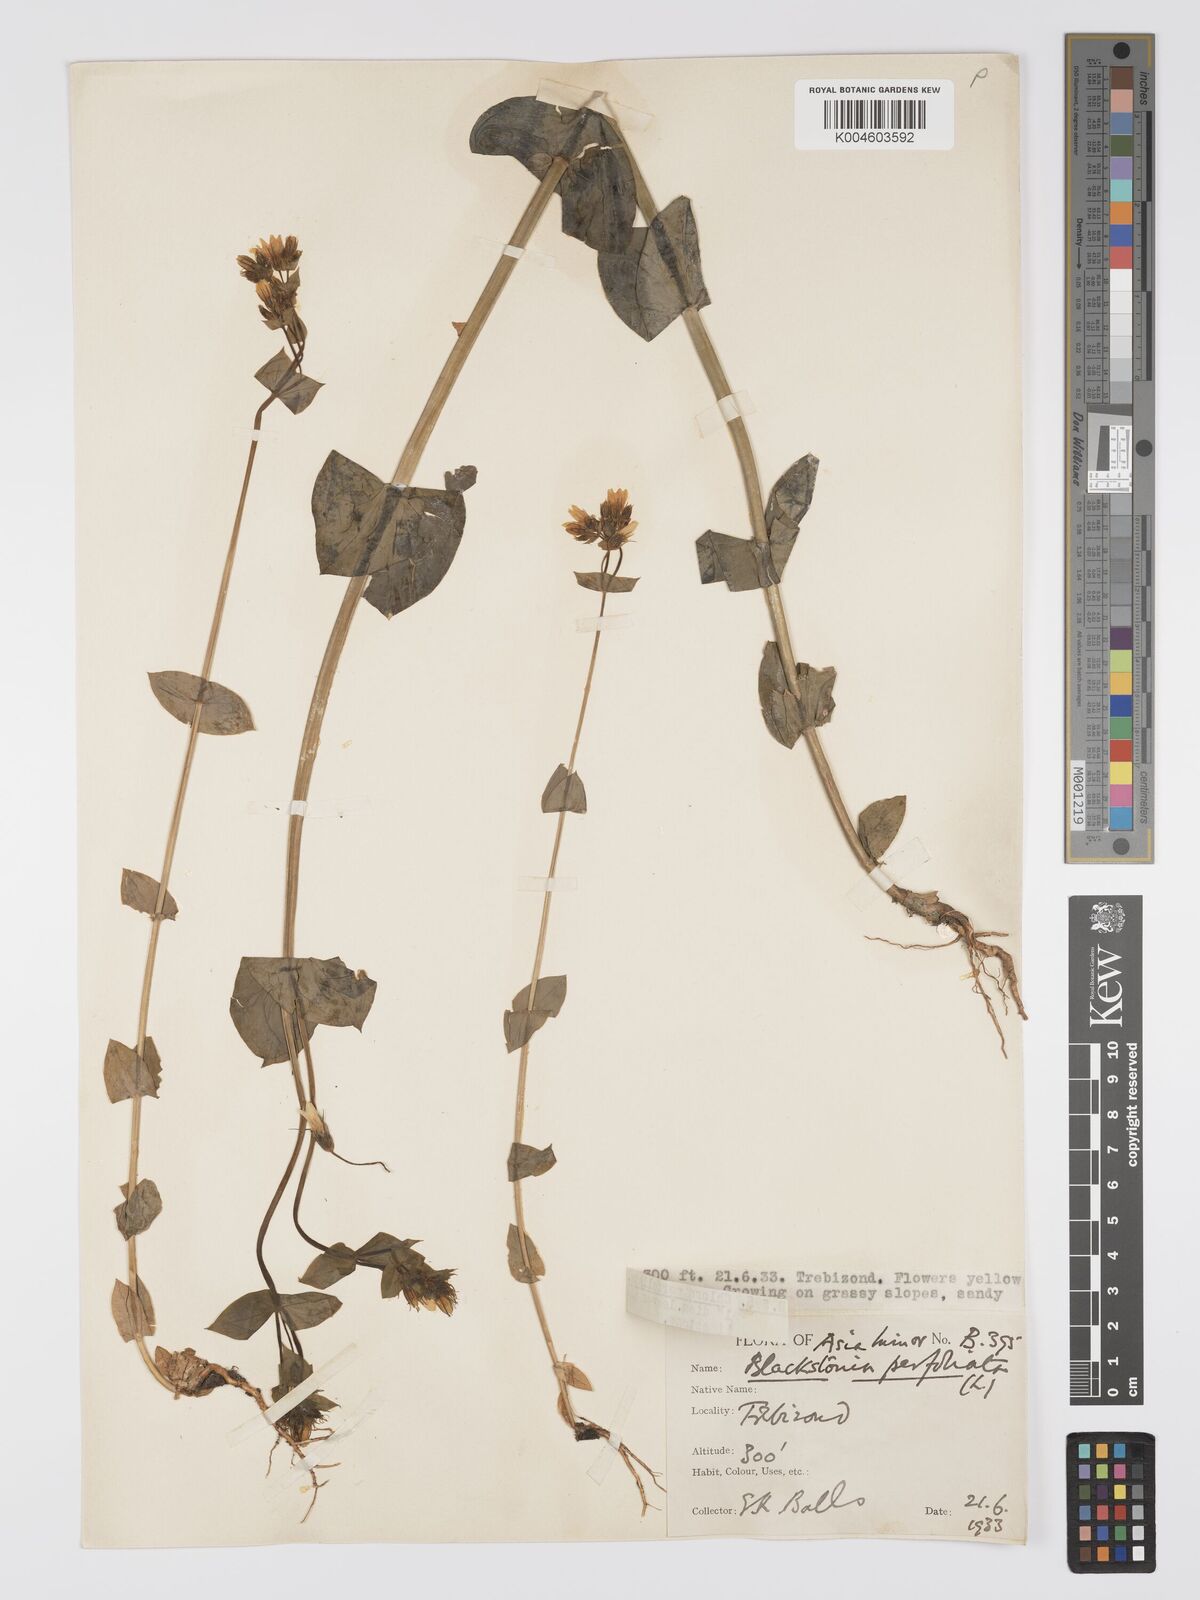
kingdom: Plantae
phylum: Tracheophyta
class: Magnoliopsida
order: Gentianales
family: Gentianaceae
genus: Blackstonia
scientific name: Blackstonia perfoliata
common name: Yellow-wort
